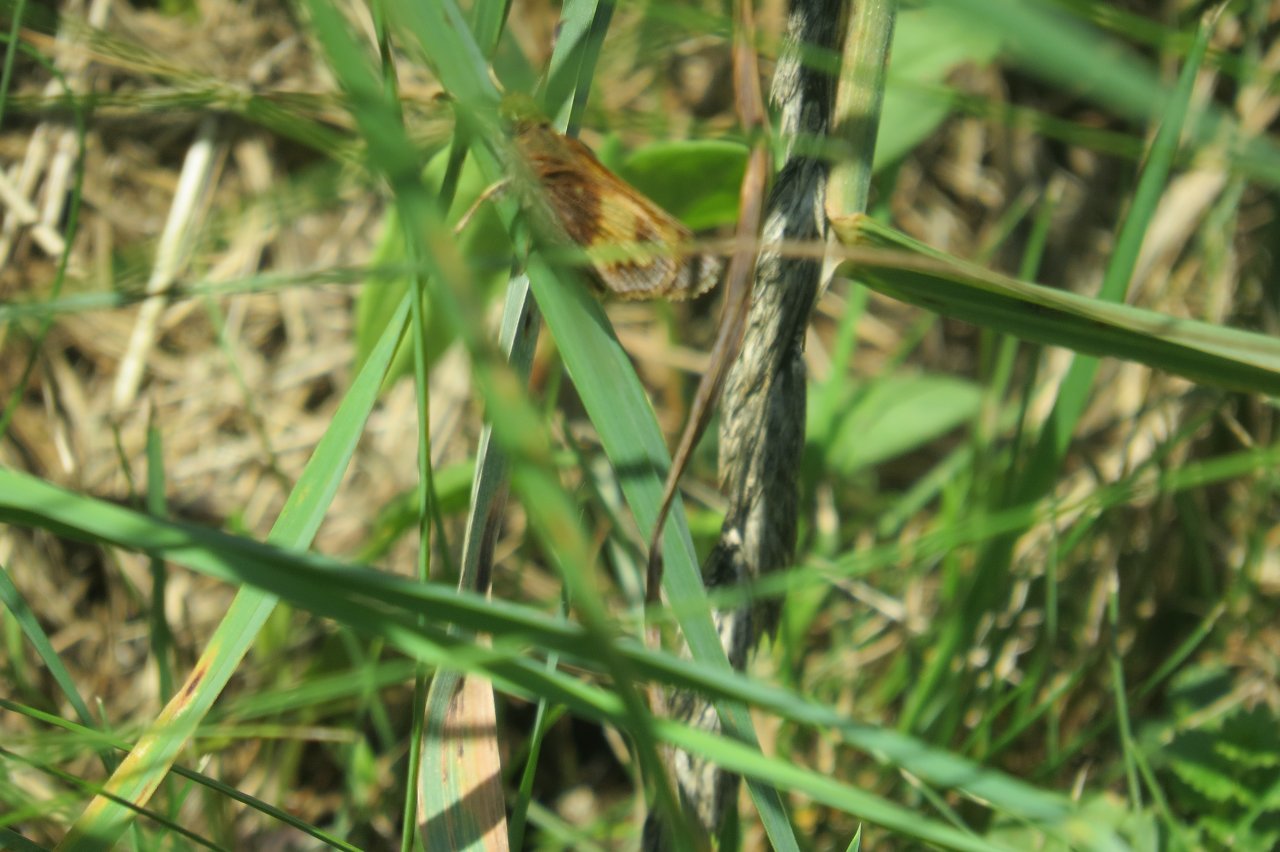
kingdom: Animalia
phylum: Arthropoda
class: Insecta
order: Lepidoptera
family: Hesperiidae
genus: Lon
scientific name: Lon hobomok
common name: Hobomok Skipper
